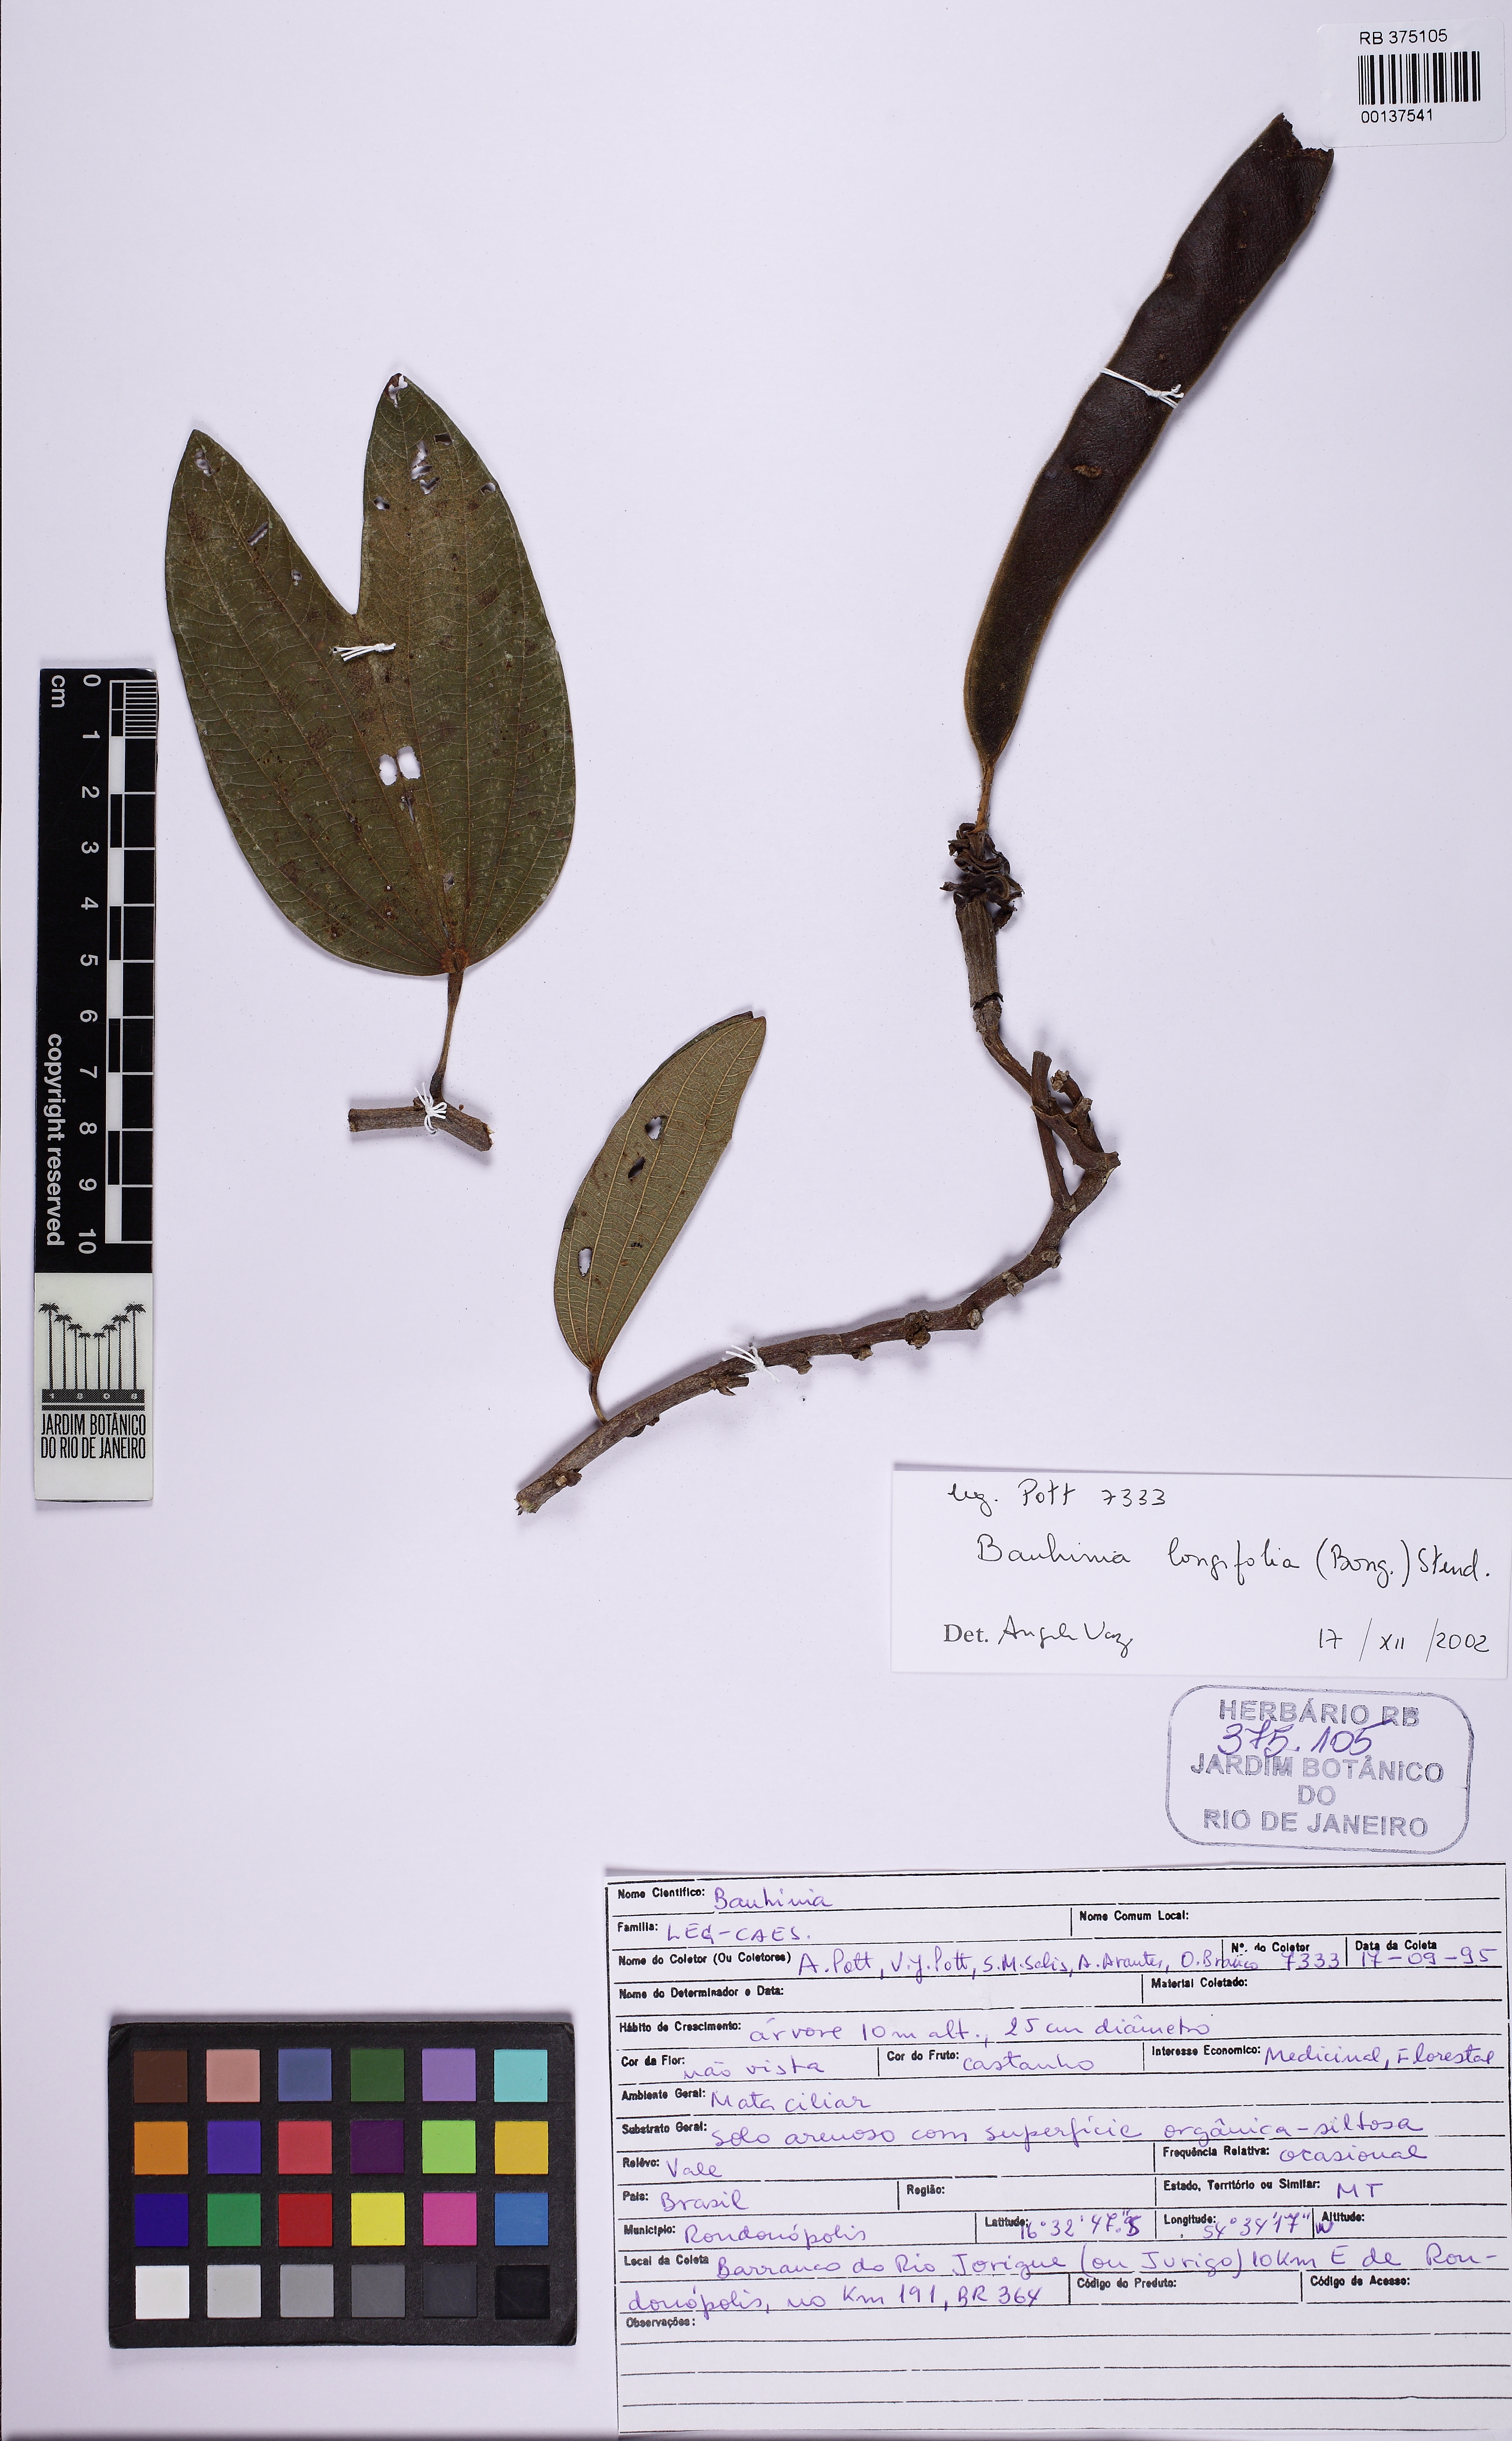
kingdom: Plantae
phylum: Tracheophyta
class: Magnoliopsida
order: Fabales
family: Fabaceae
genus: Bauhinia
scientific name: Bauhinia longifolia
